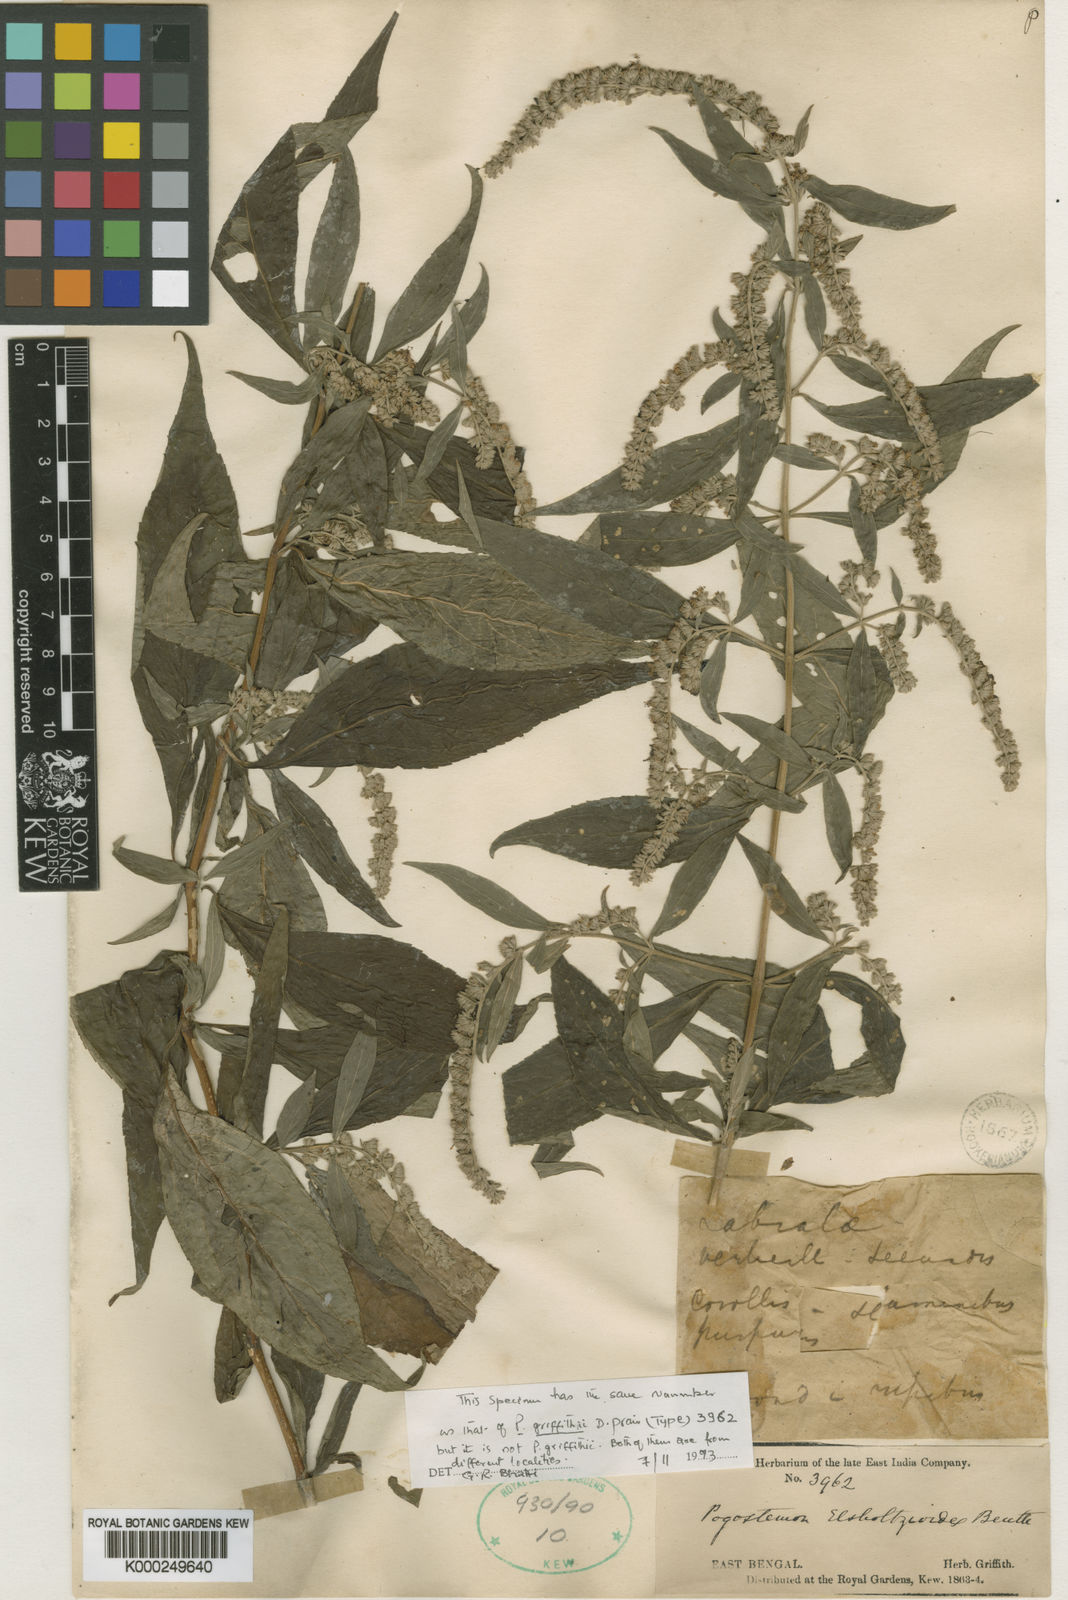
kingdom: Plantae
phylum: Tracheophyta
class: Magnoliopsida
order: Lamiales
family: Lamiaceae
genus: Pogostemon
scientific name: Pogostemon elsholtzioides
